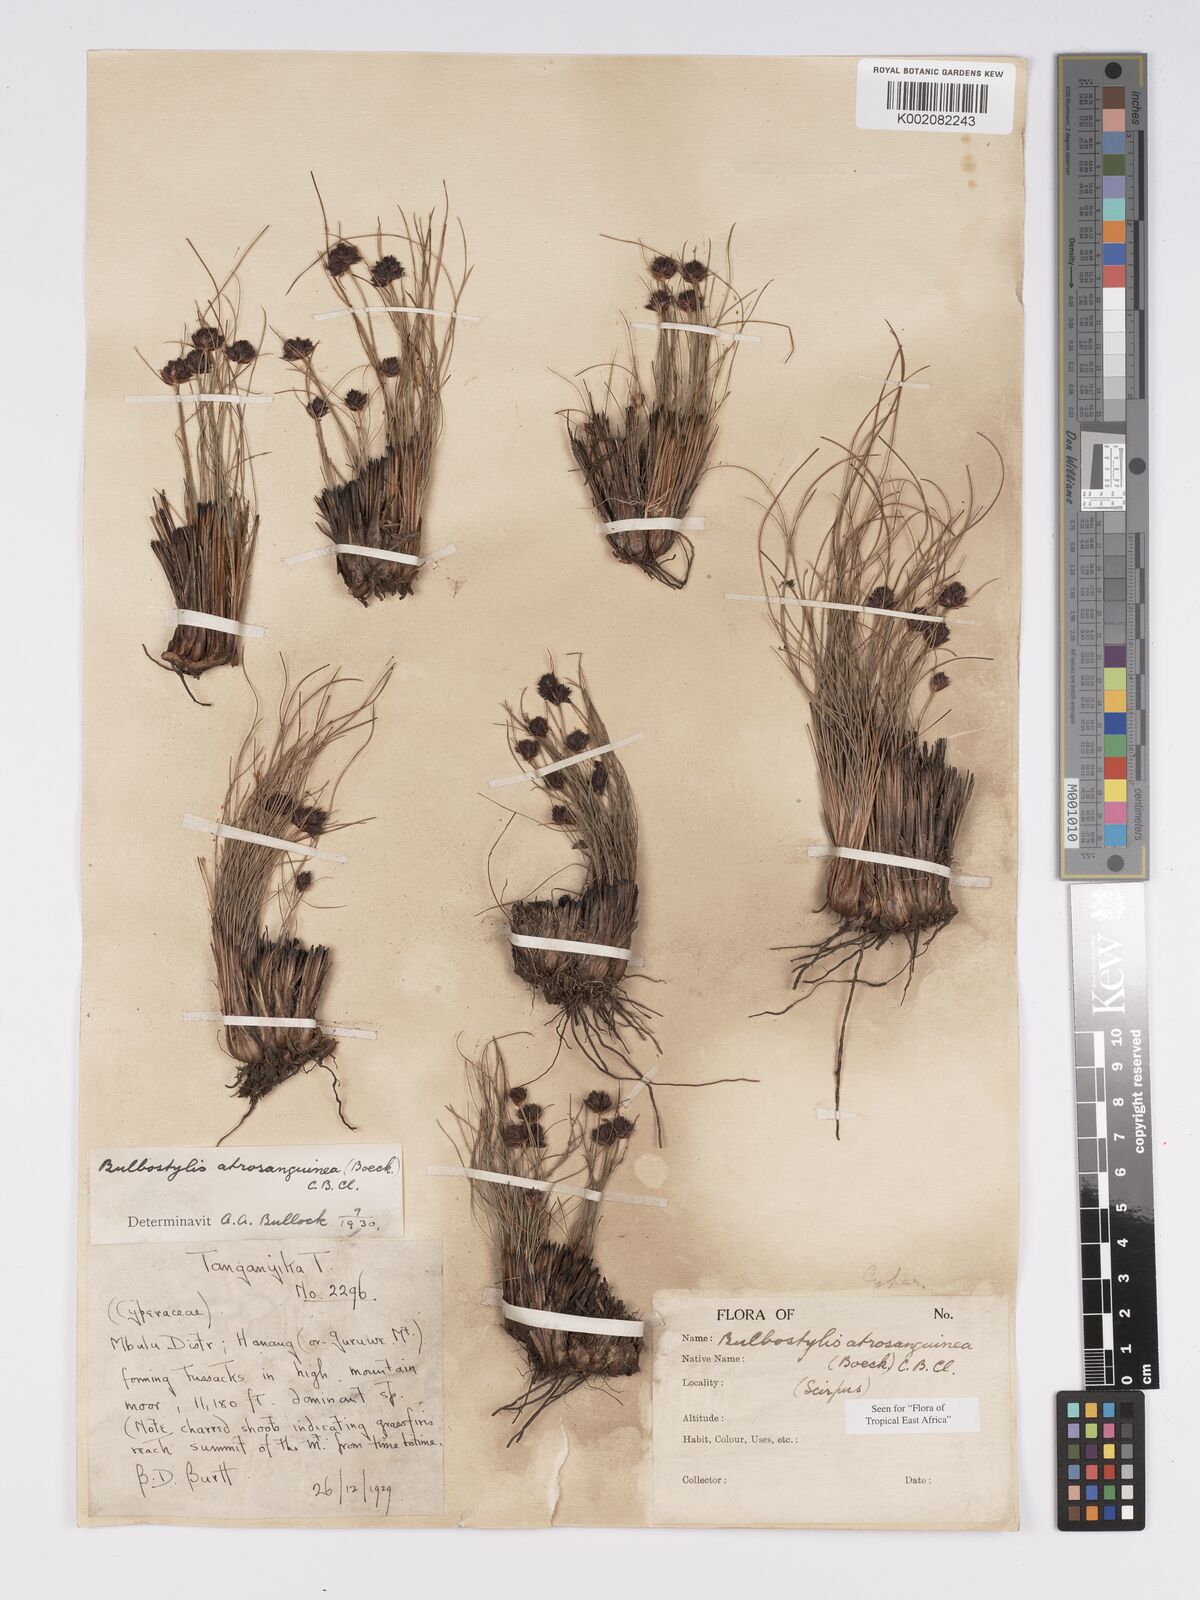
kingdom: Plantae
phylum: Tracheophyta
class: Liliopsida
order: Poales
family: Cyperaceae
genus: Bulbostylis
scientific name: Bulbostylis atrosanguinea
